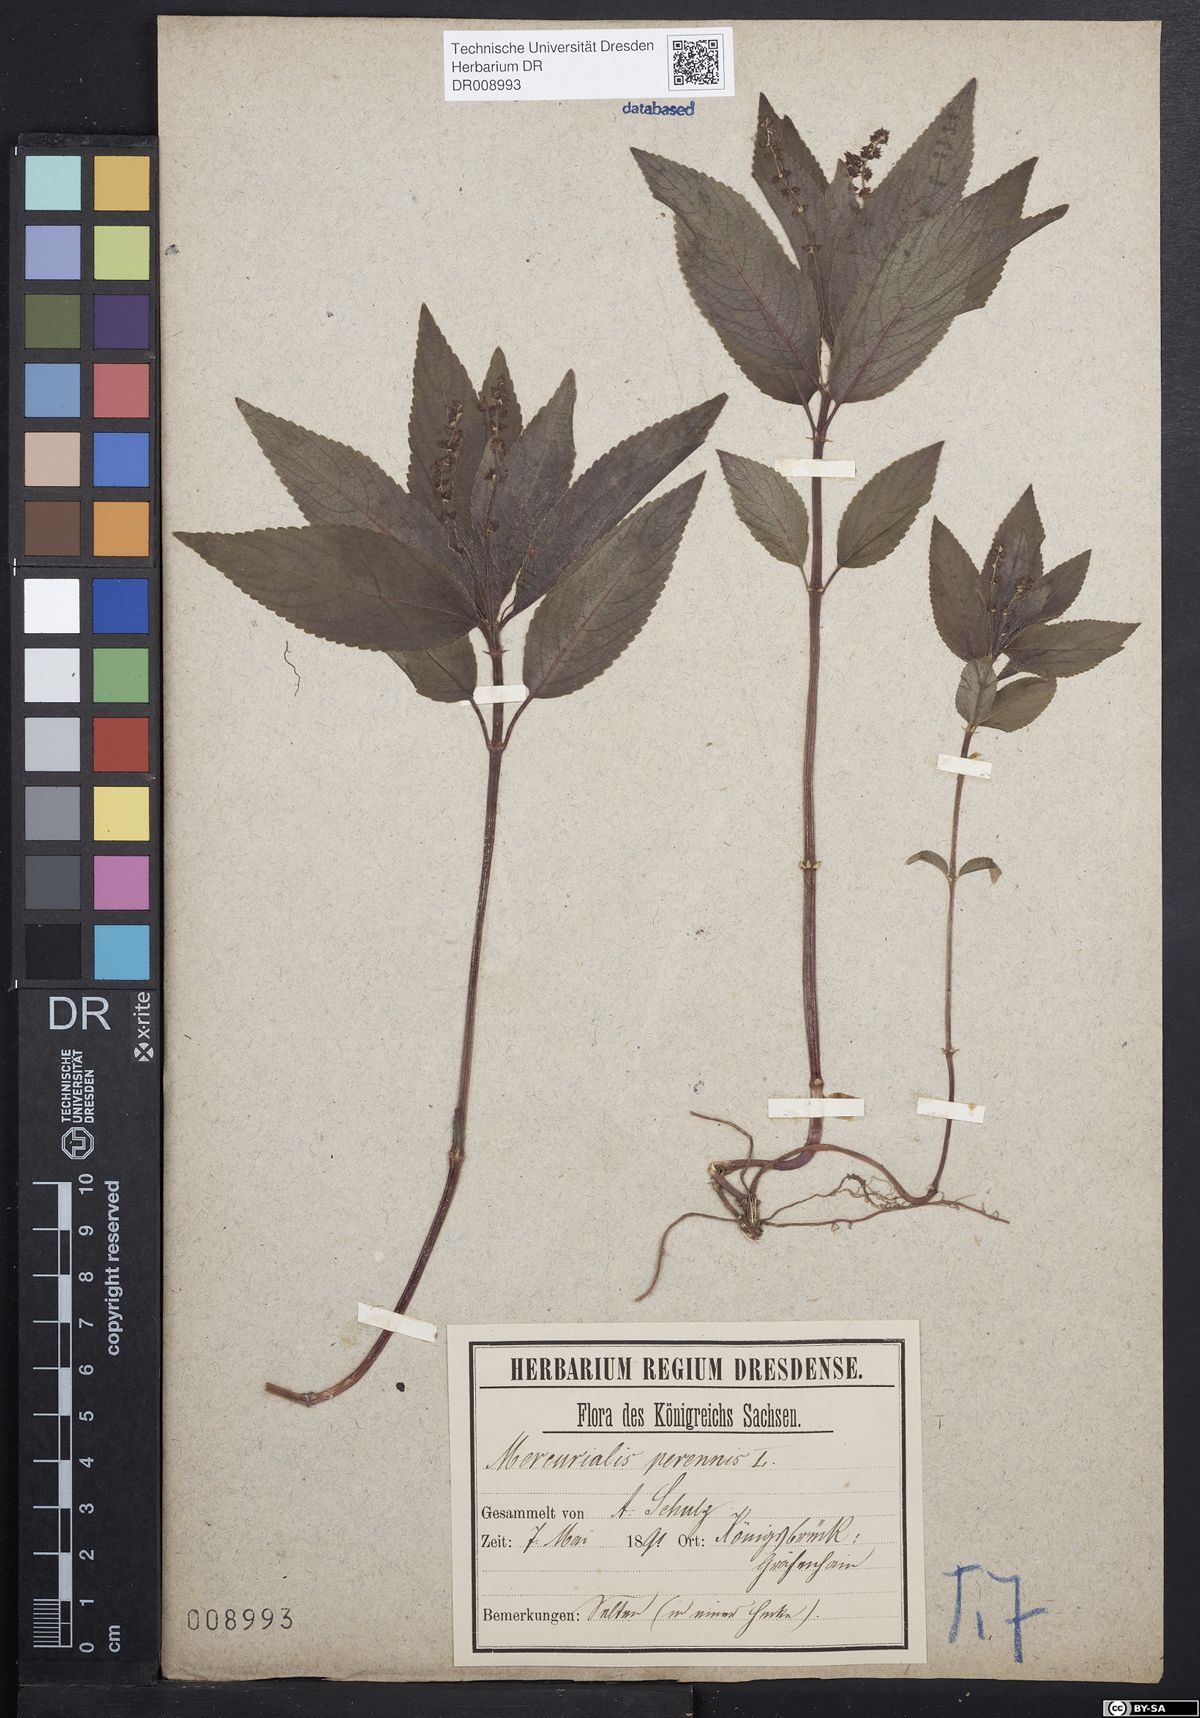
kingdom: Plantae
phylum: Tracheophyta
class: Magnoliopsida
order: Malpighiales
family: Euphorbiaceae
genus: Mercurialis
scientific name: Mercurialis perennis
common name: Dog mercury
